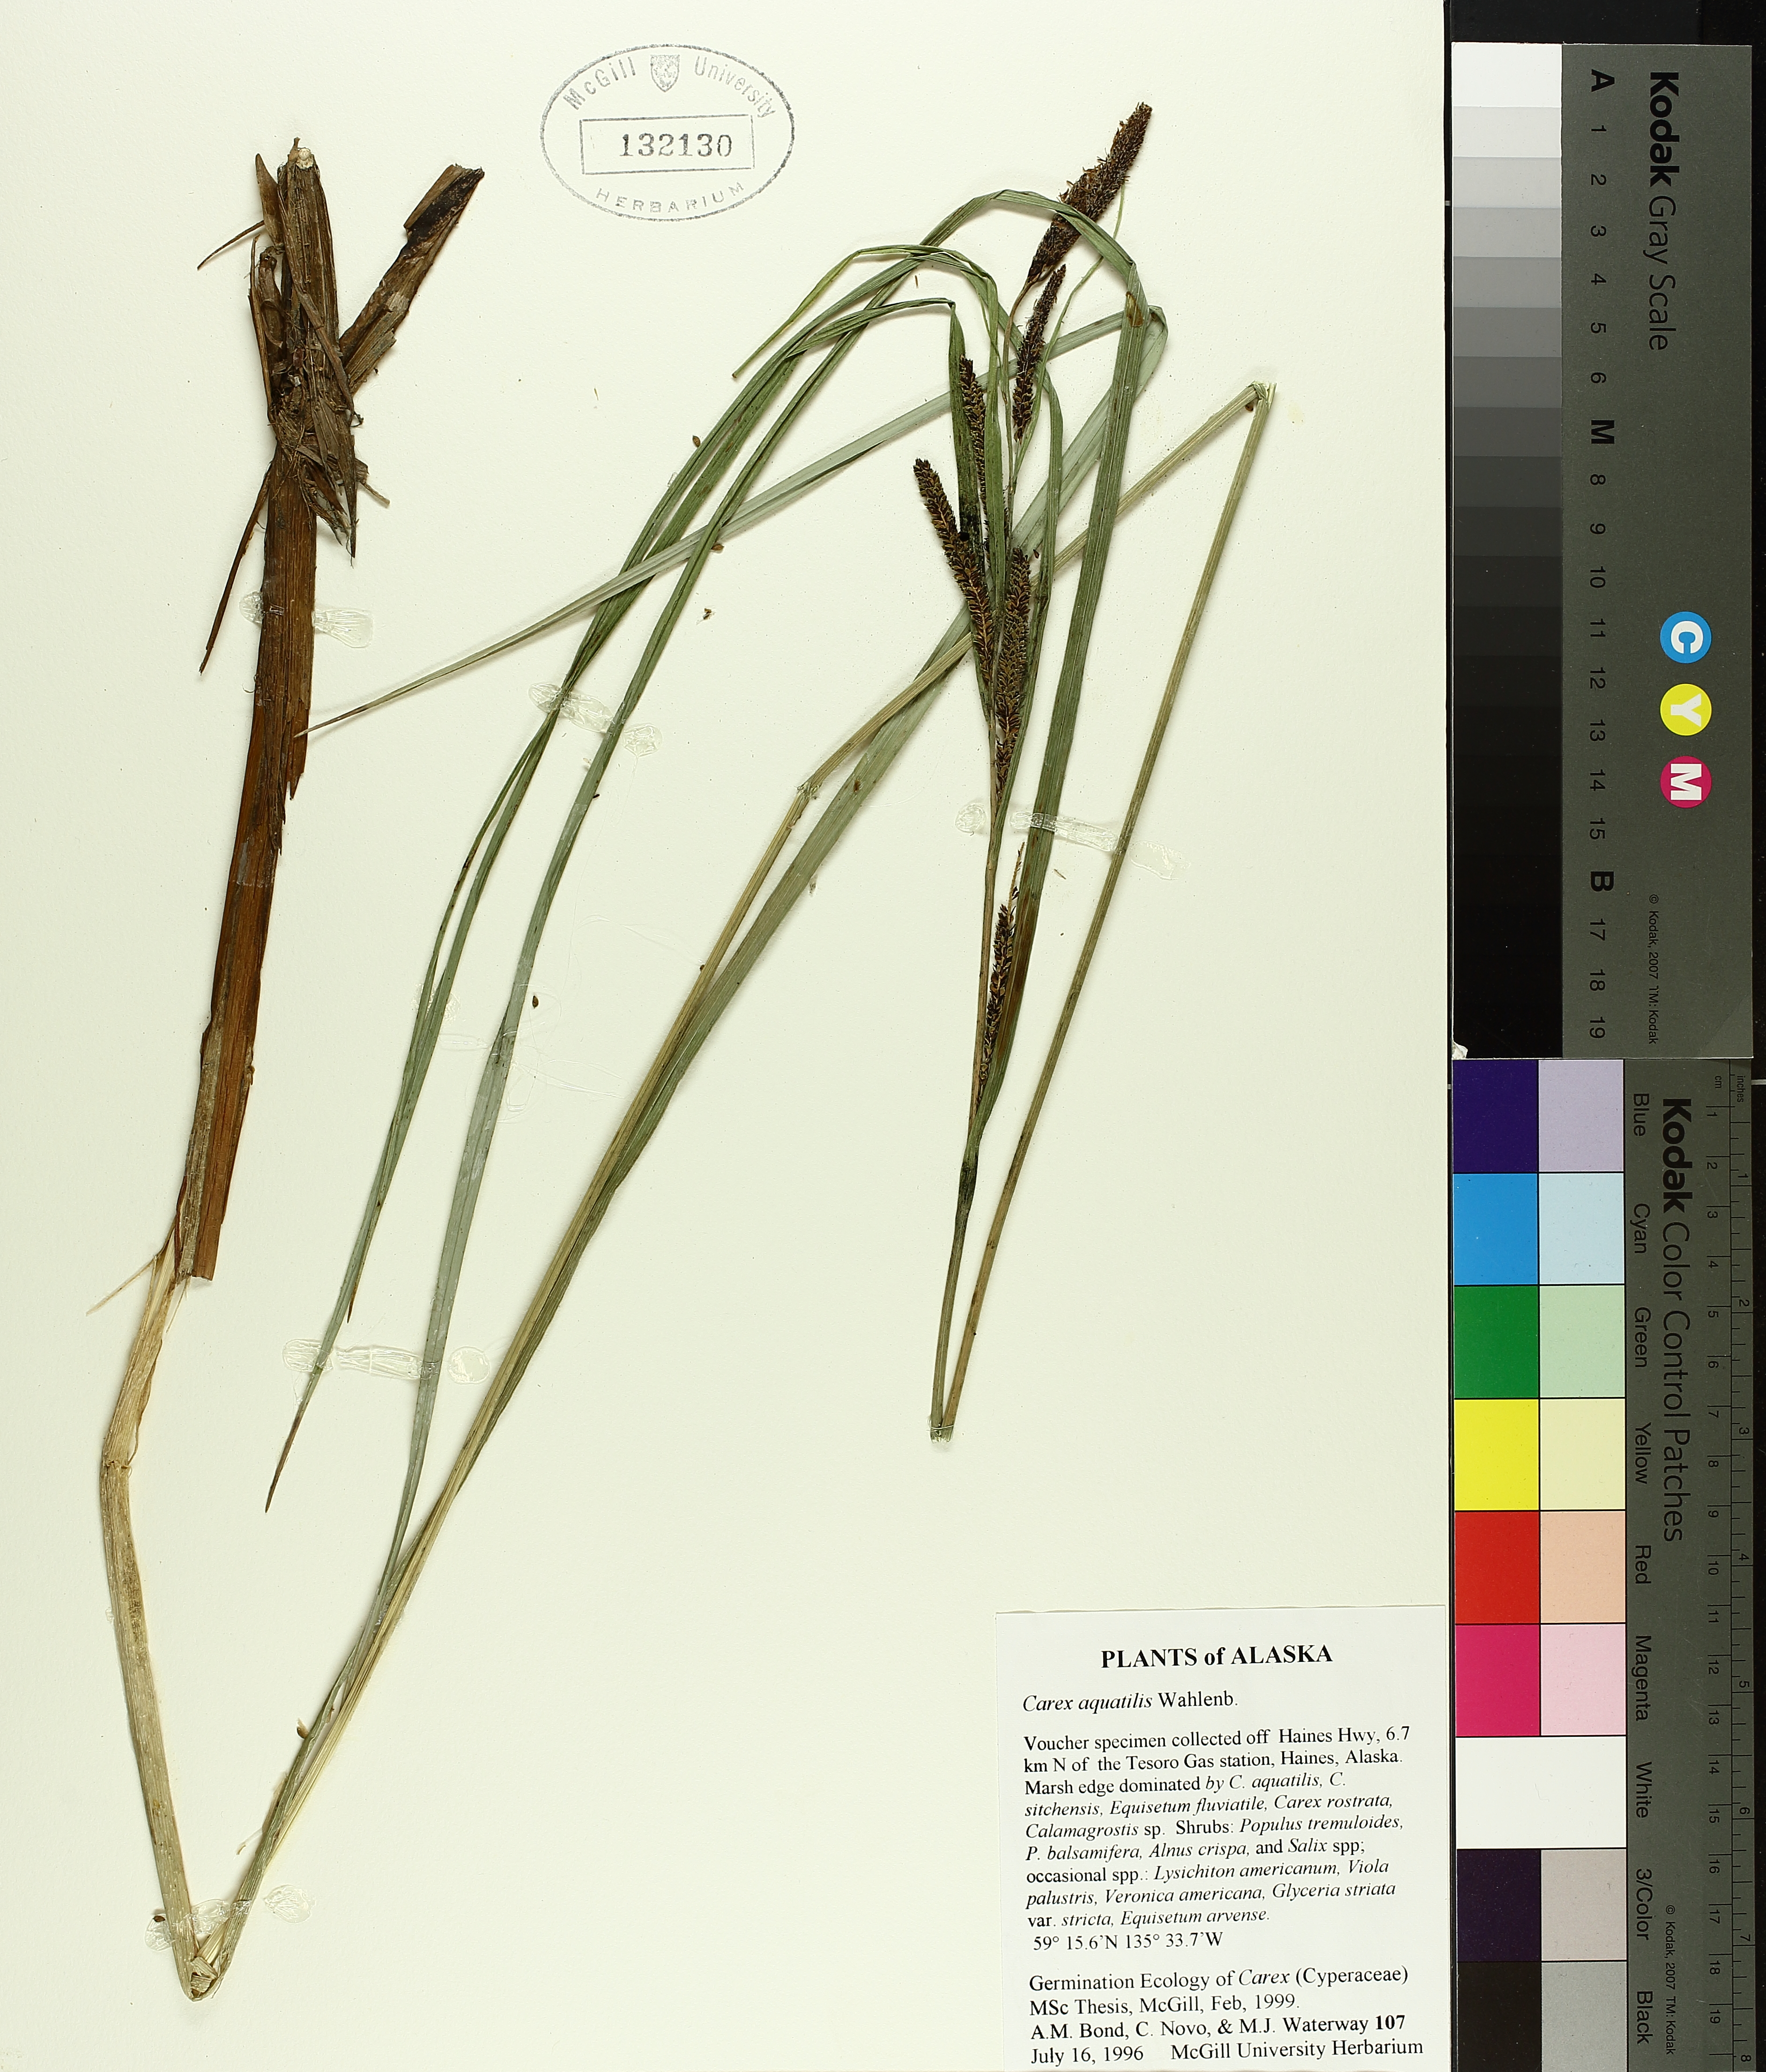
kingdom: Plantae
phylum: Tracheophyta
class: Liliopsida
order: Poales
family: Cyperaceae
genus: Carex
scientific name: Carex aquatilis
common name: Water sedge
